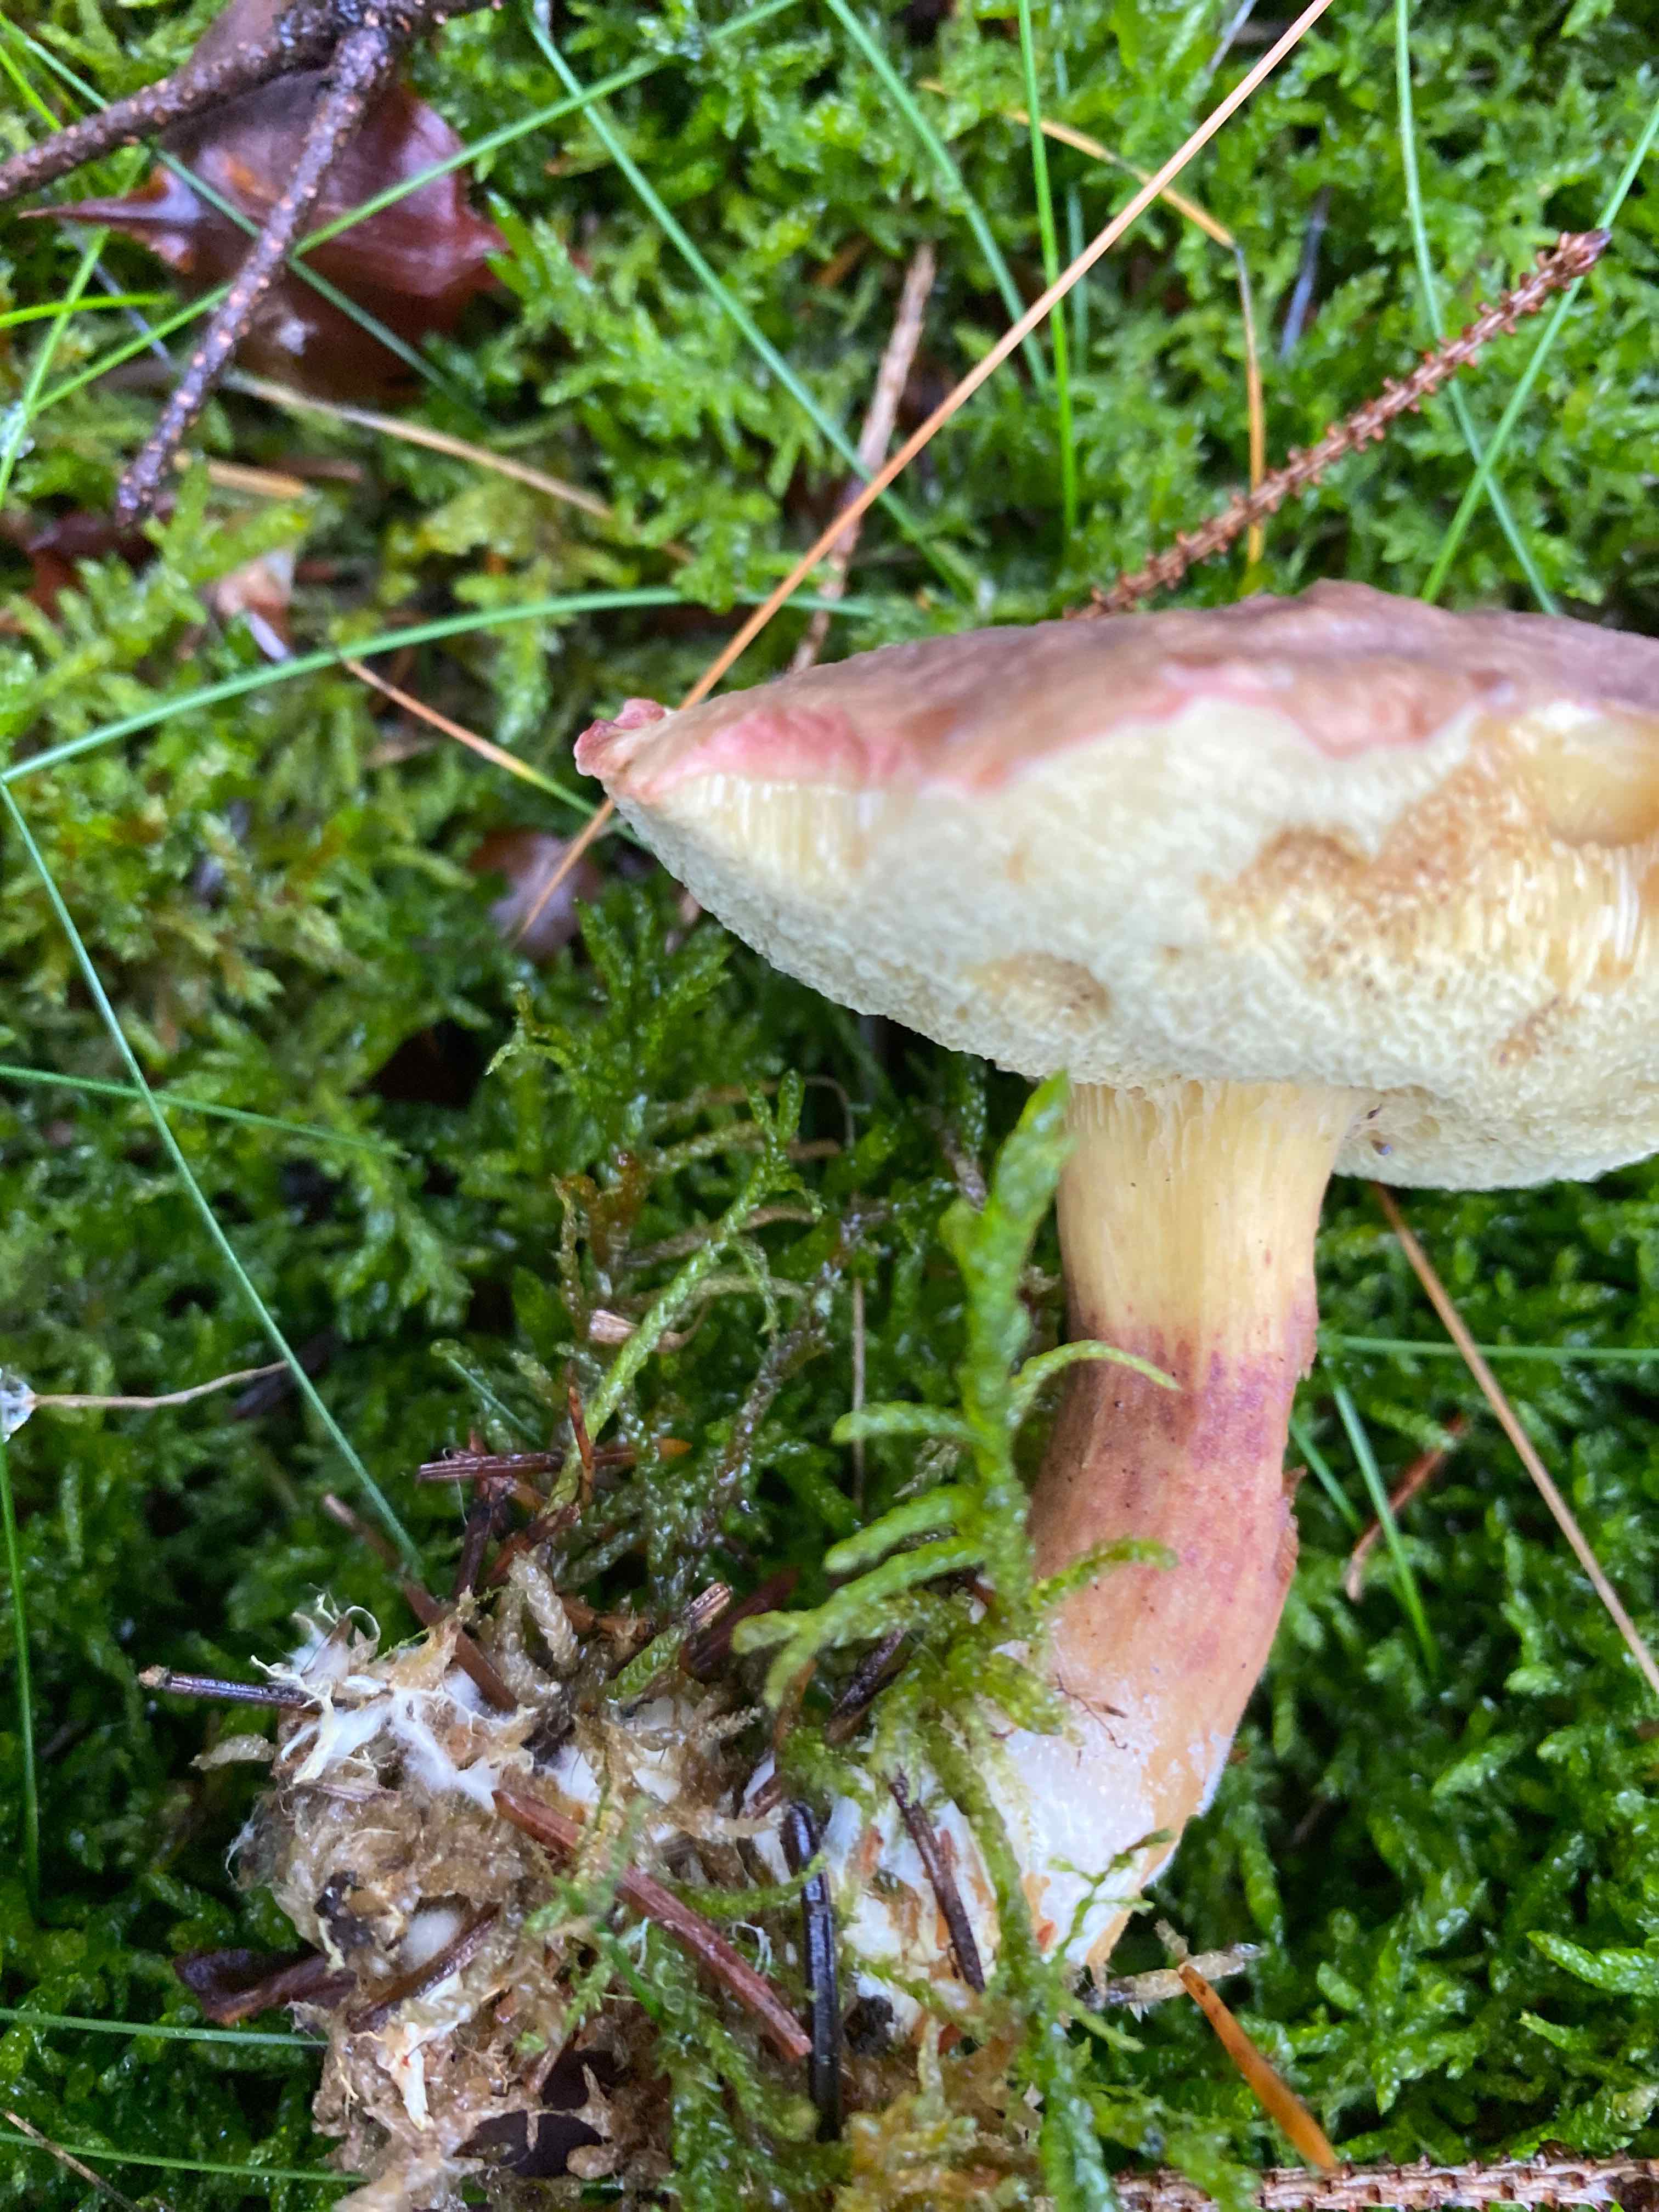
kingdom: Fungi
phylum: Basidiomycota
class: Agaricomycetes
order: Boletales
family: Boletaceae
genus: Xerocomellus
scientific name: Xerocomellus pruinatus
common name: dugget rørhat
